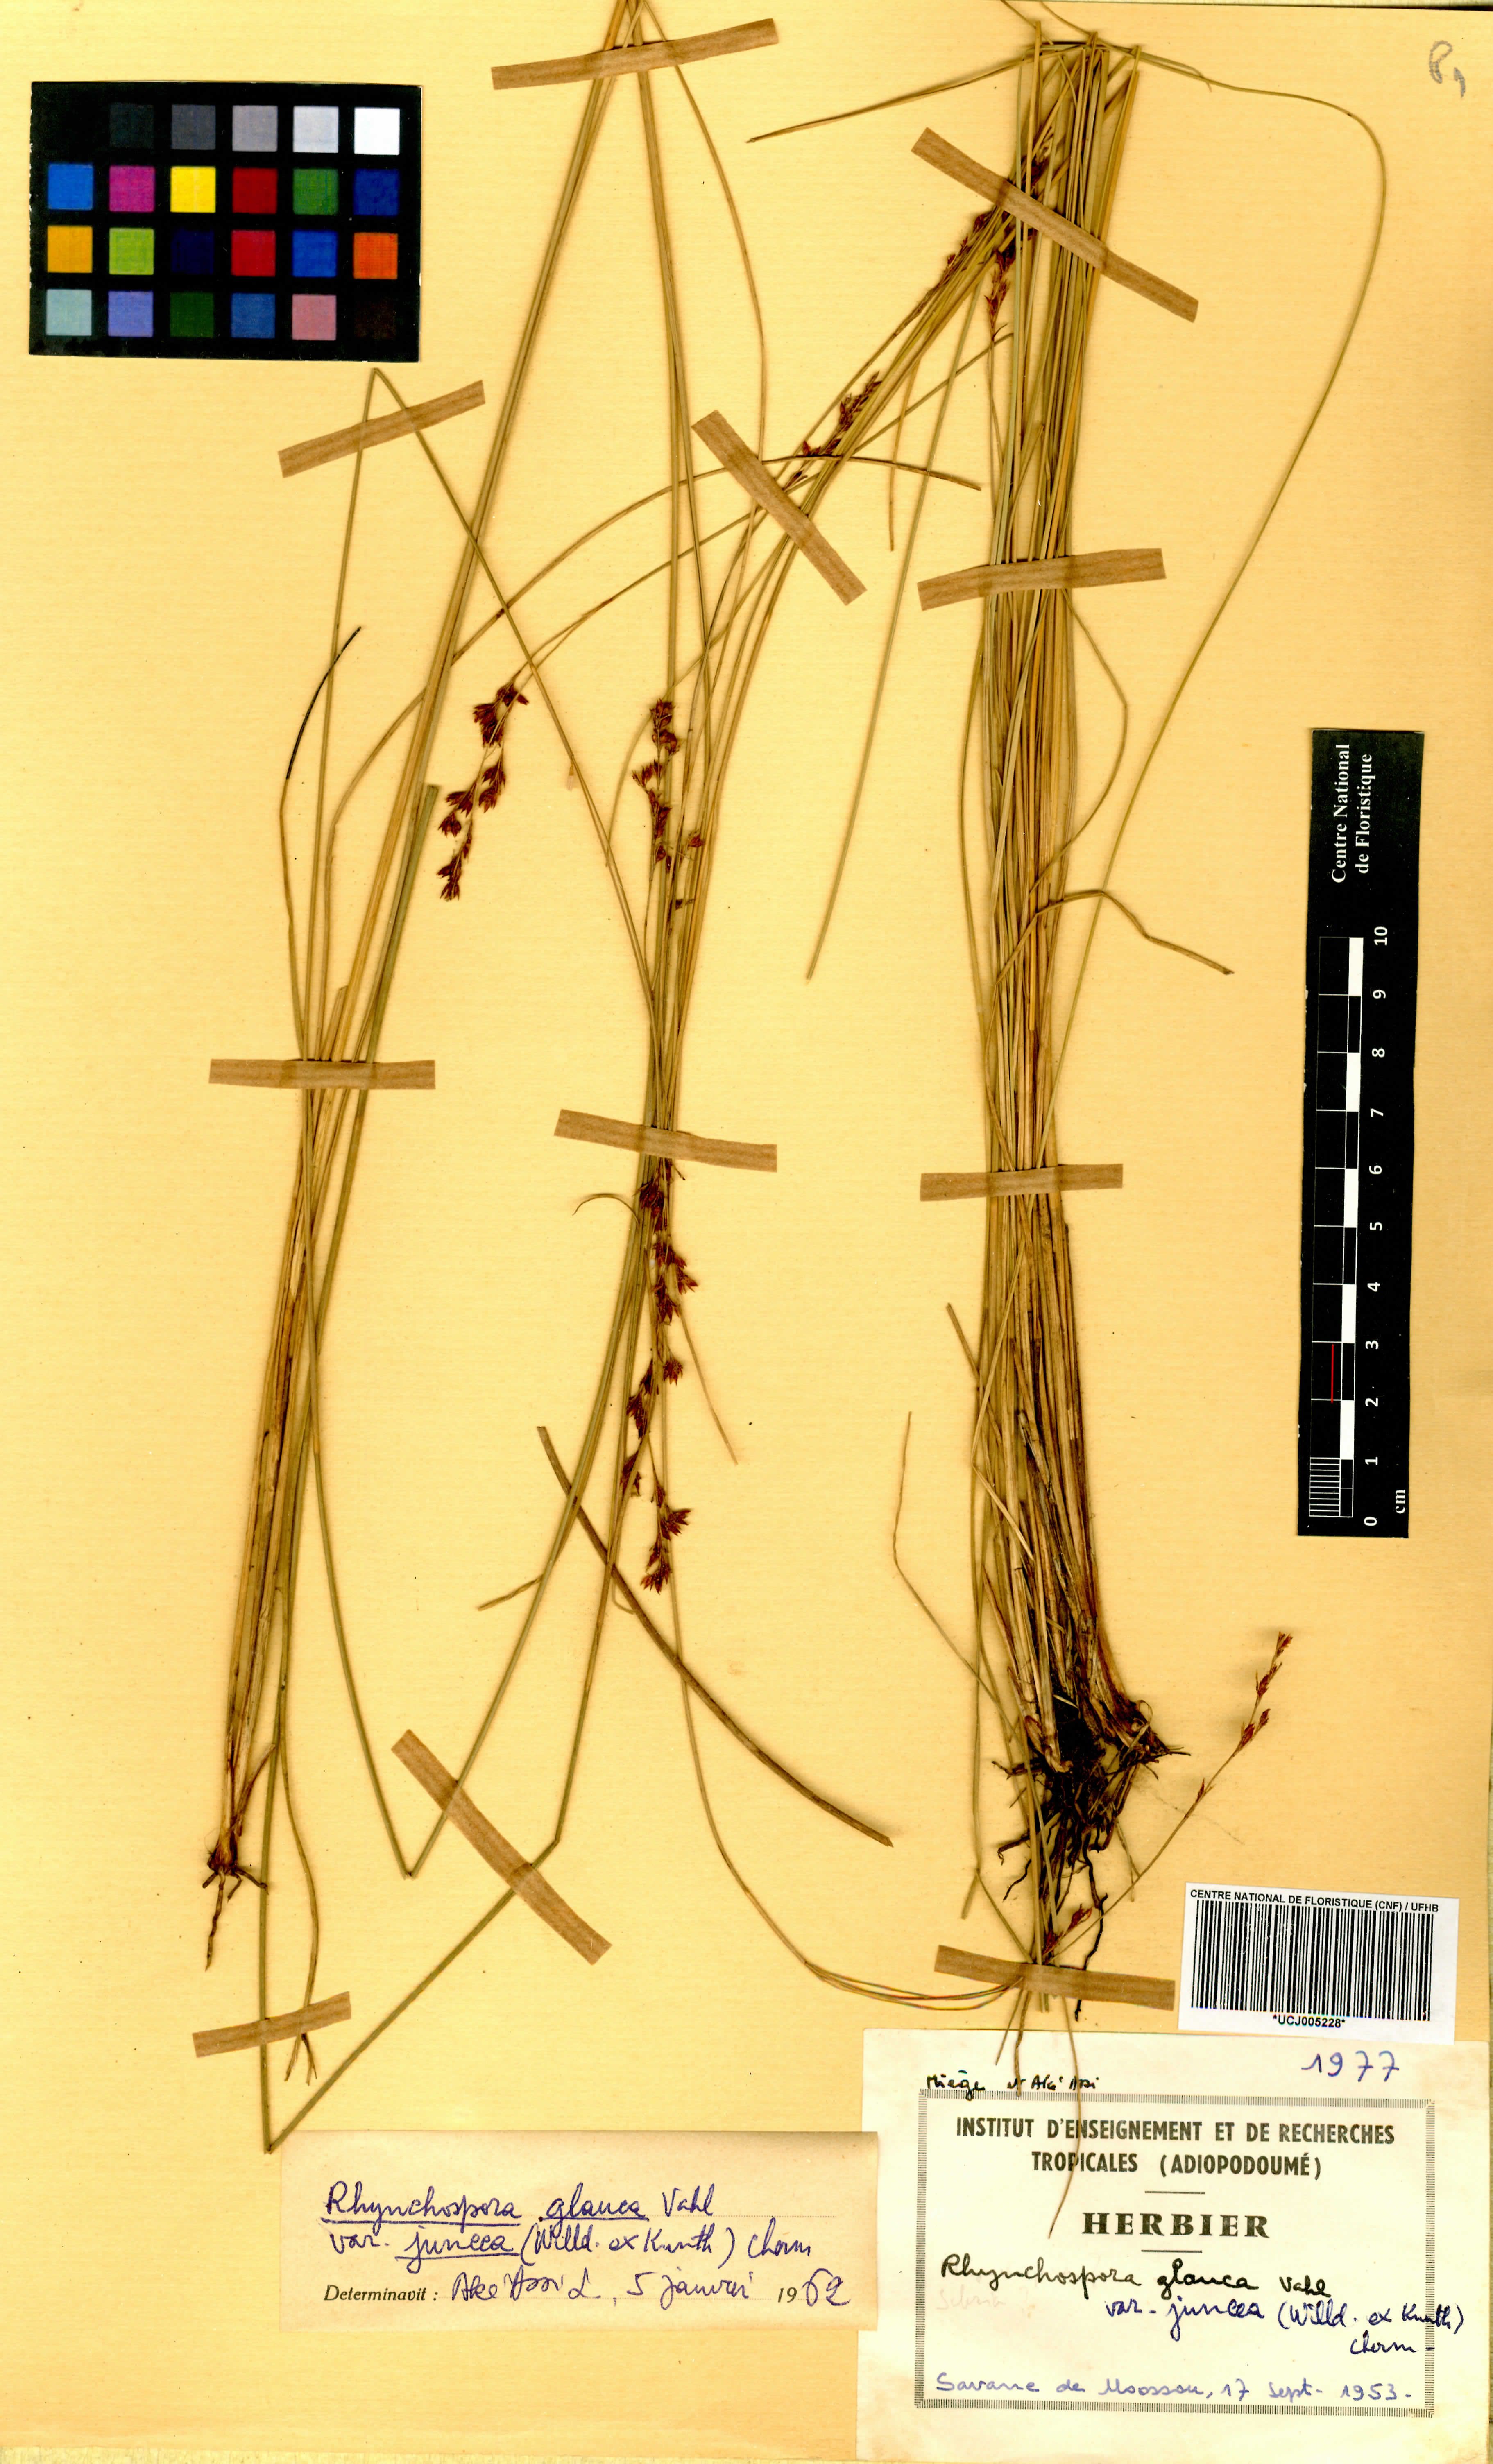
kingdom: Plantae
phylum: Tracheophyta
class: Liliopsida
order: Poales
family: Cyperaceae
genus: Rhynchospora
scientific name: Rhynchospora brownii
